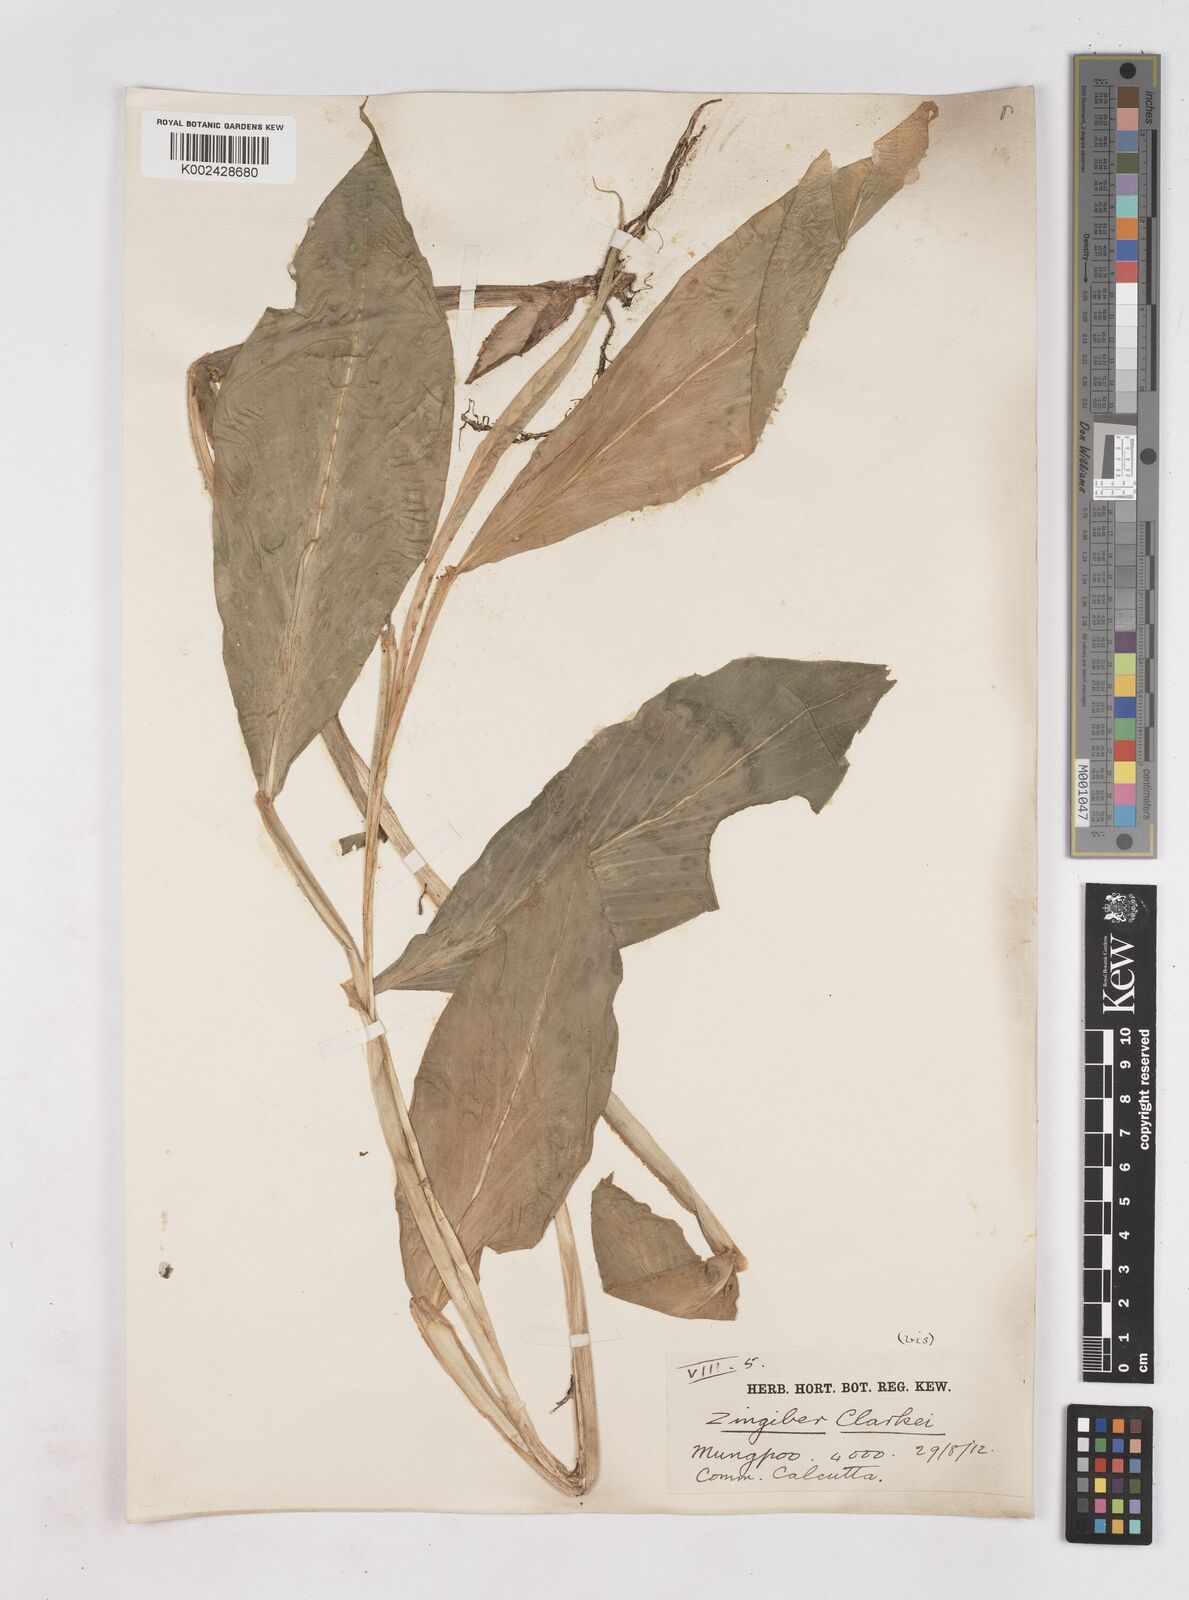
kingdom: Plantae
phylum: Tracheophyta
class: Liliopsida
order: Zingiberales
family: Zingiberaceae
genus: Zingiber
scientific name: Zingiber clarkei
